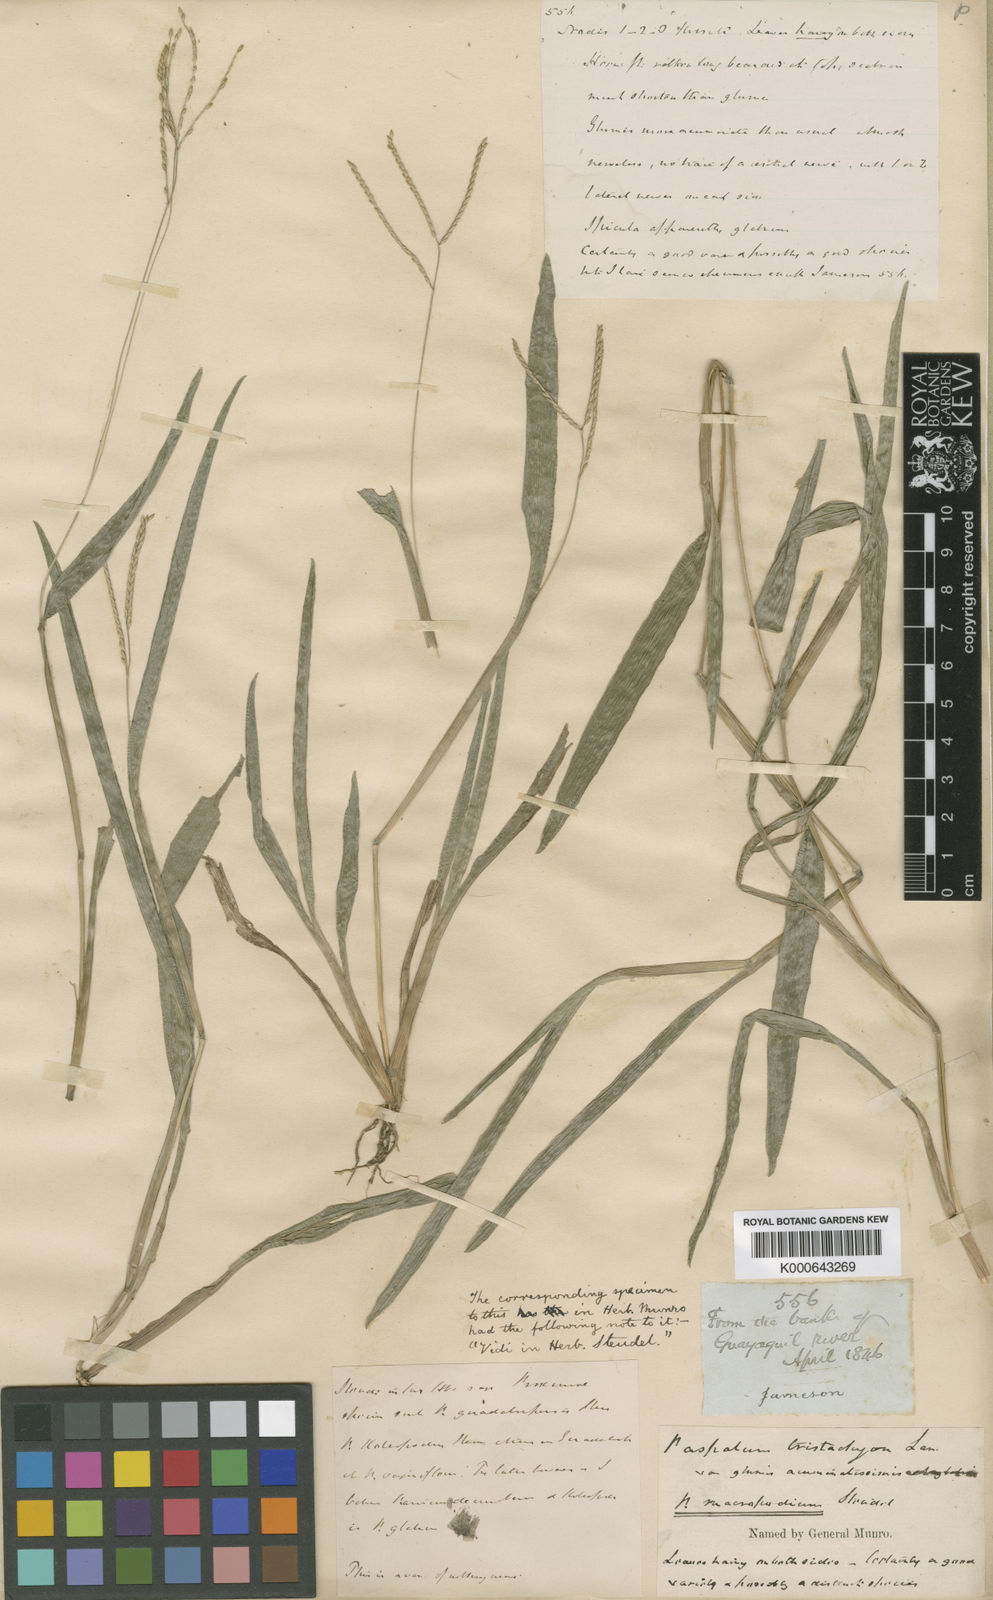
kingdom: Plantae
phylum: Tracheophyta
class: Liliopsida
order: Poales
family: Poaceae
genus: Axonopus
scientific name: Axonopus compressus
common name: American carpet grass
